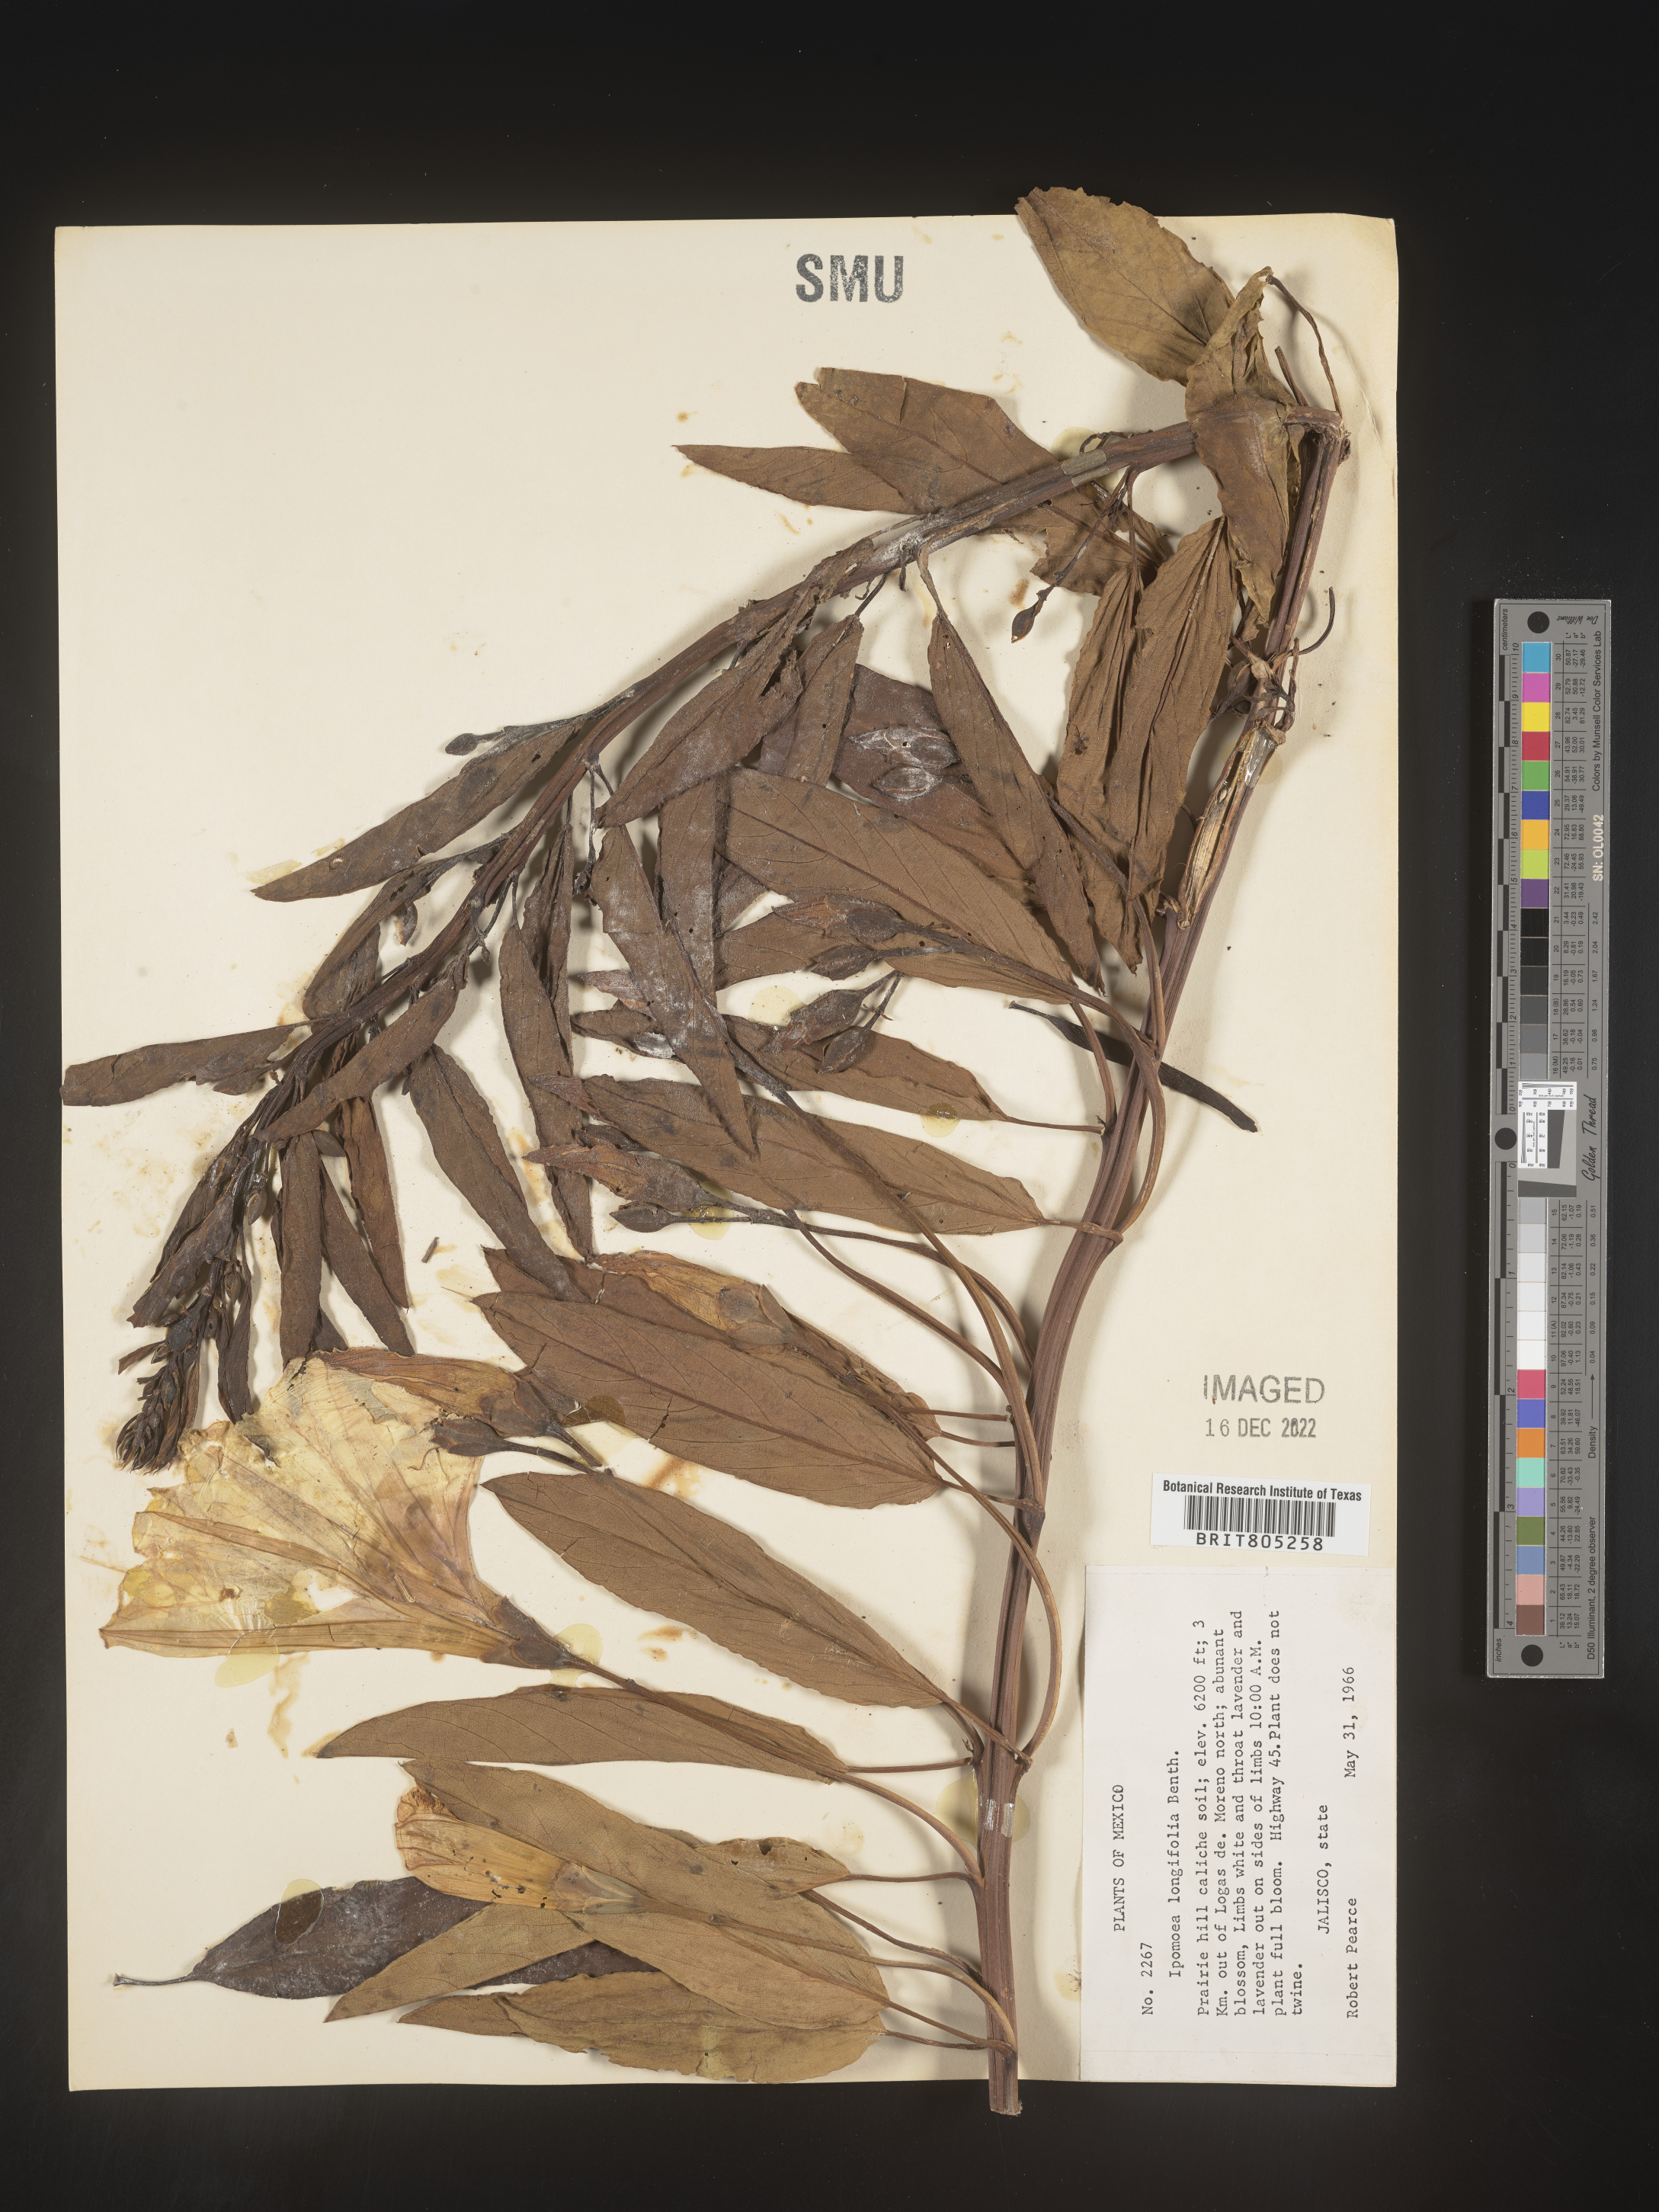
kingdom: Plantae
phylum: Tracheophyta
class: Magnoliopsida
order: Solanales
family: Convolvulaceae
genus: Ipomoea
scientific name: Ipomoea
